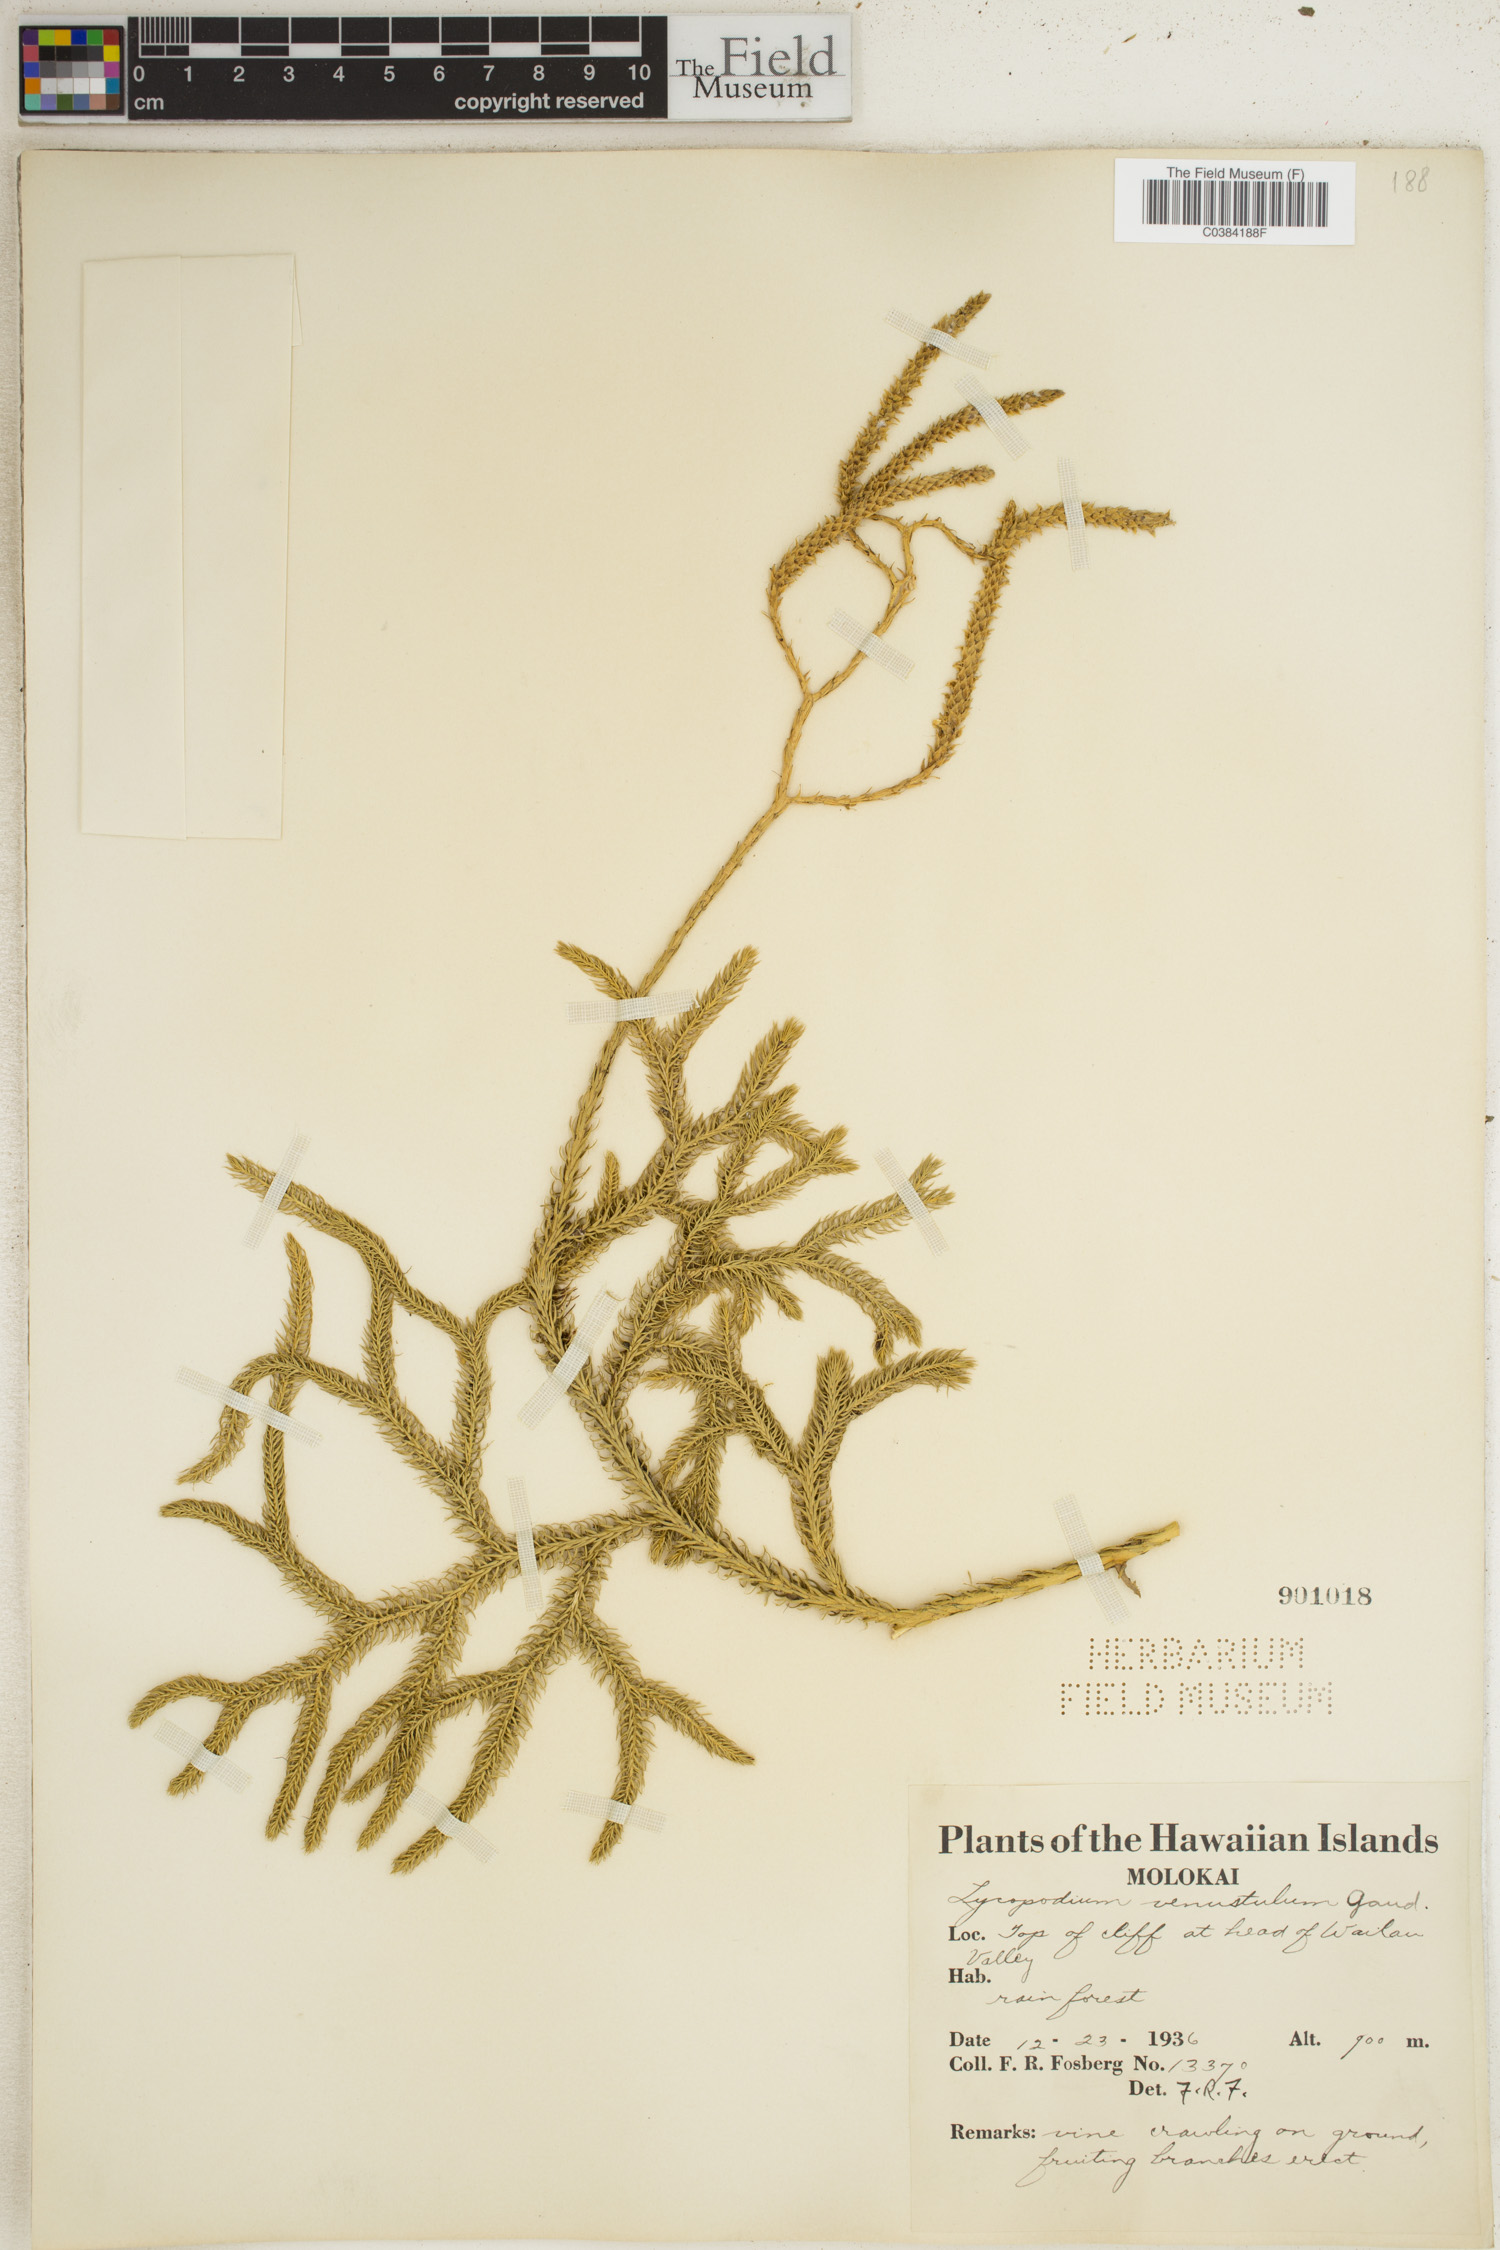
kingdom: Plantae
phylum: Tracheophyta
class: Lycopodiopsida
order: Lycopodiales
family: Lycopodiaceae
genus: Lycopodium
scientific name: Lycopodium venustulum
